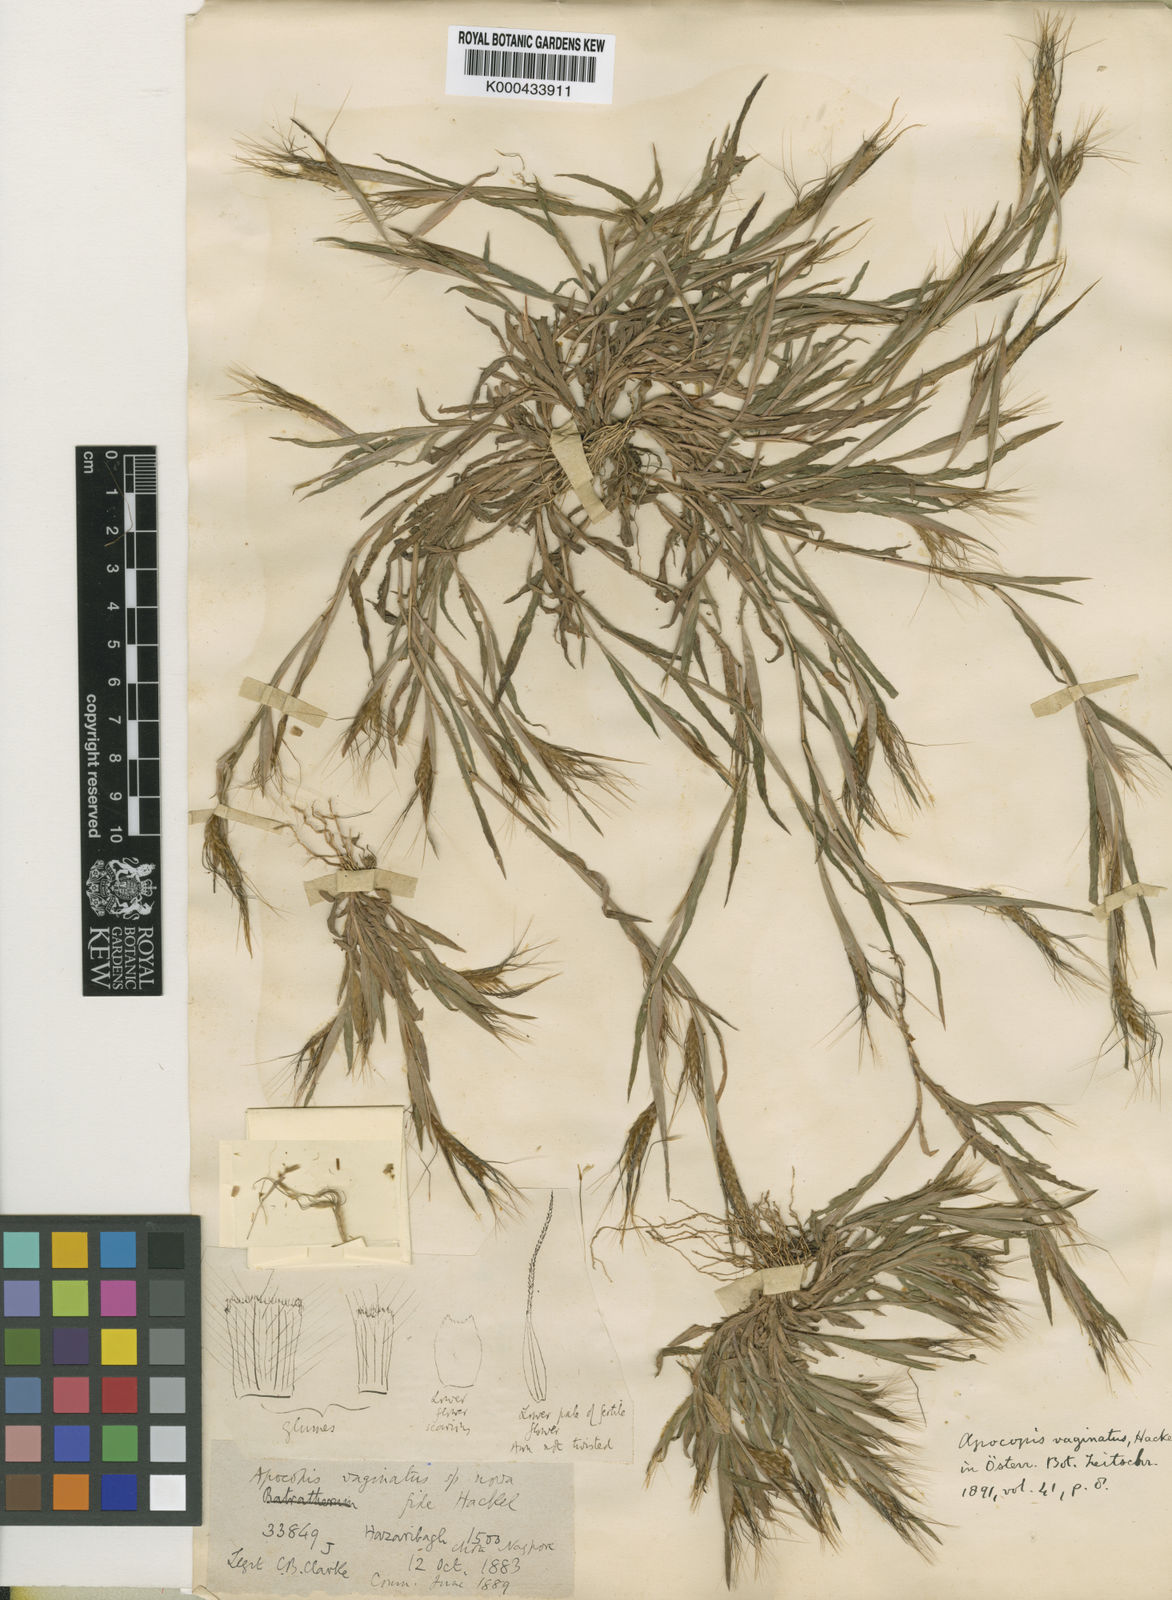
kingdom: Plantae
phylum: Tracheophyta
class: Liliopsida
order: Poales
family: Poaceae
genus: Apocopis
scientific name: Apocopis vaginatus
